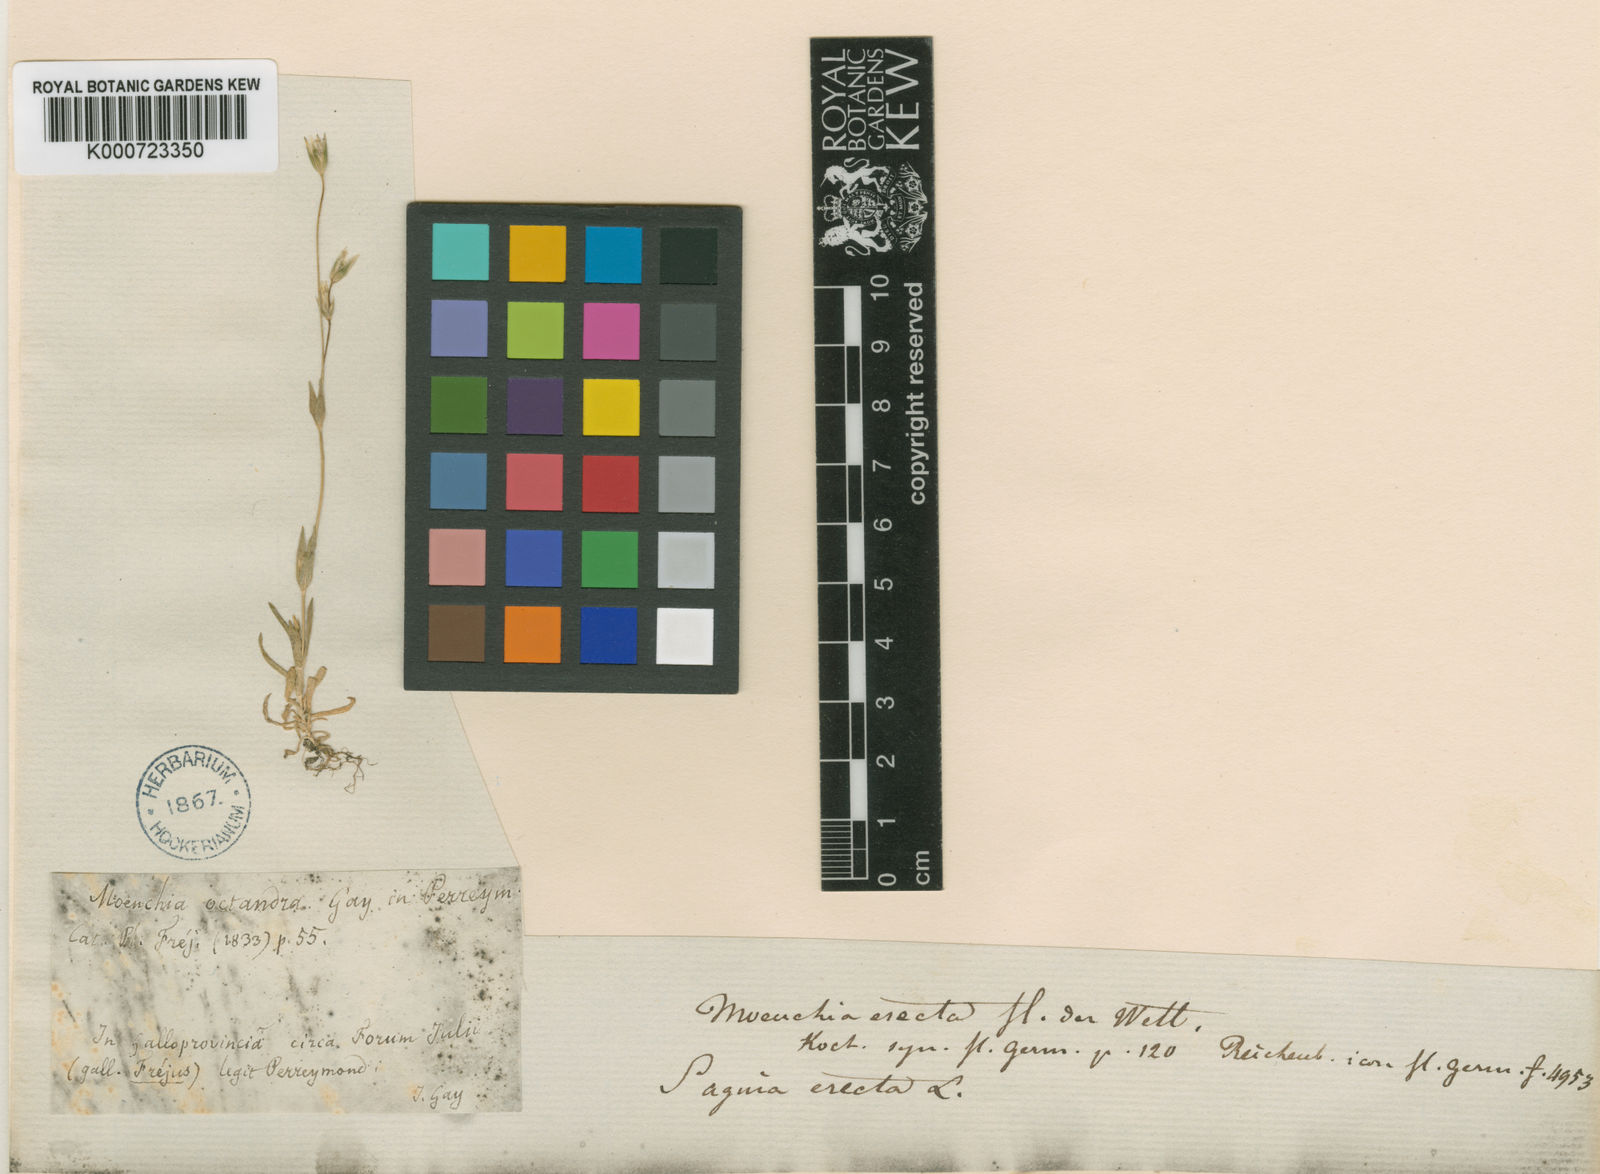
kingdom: Plantae
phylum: Tracheophyta
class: Magnoliopsida
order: Caryophyllales
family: Caryophyllaceae
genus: Cerastium
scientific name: Cerastium glomeratum
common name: Sticky chickweed
